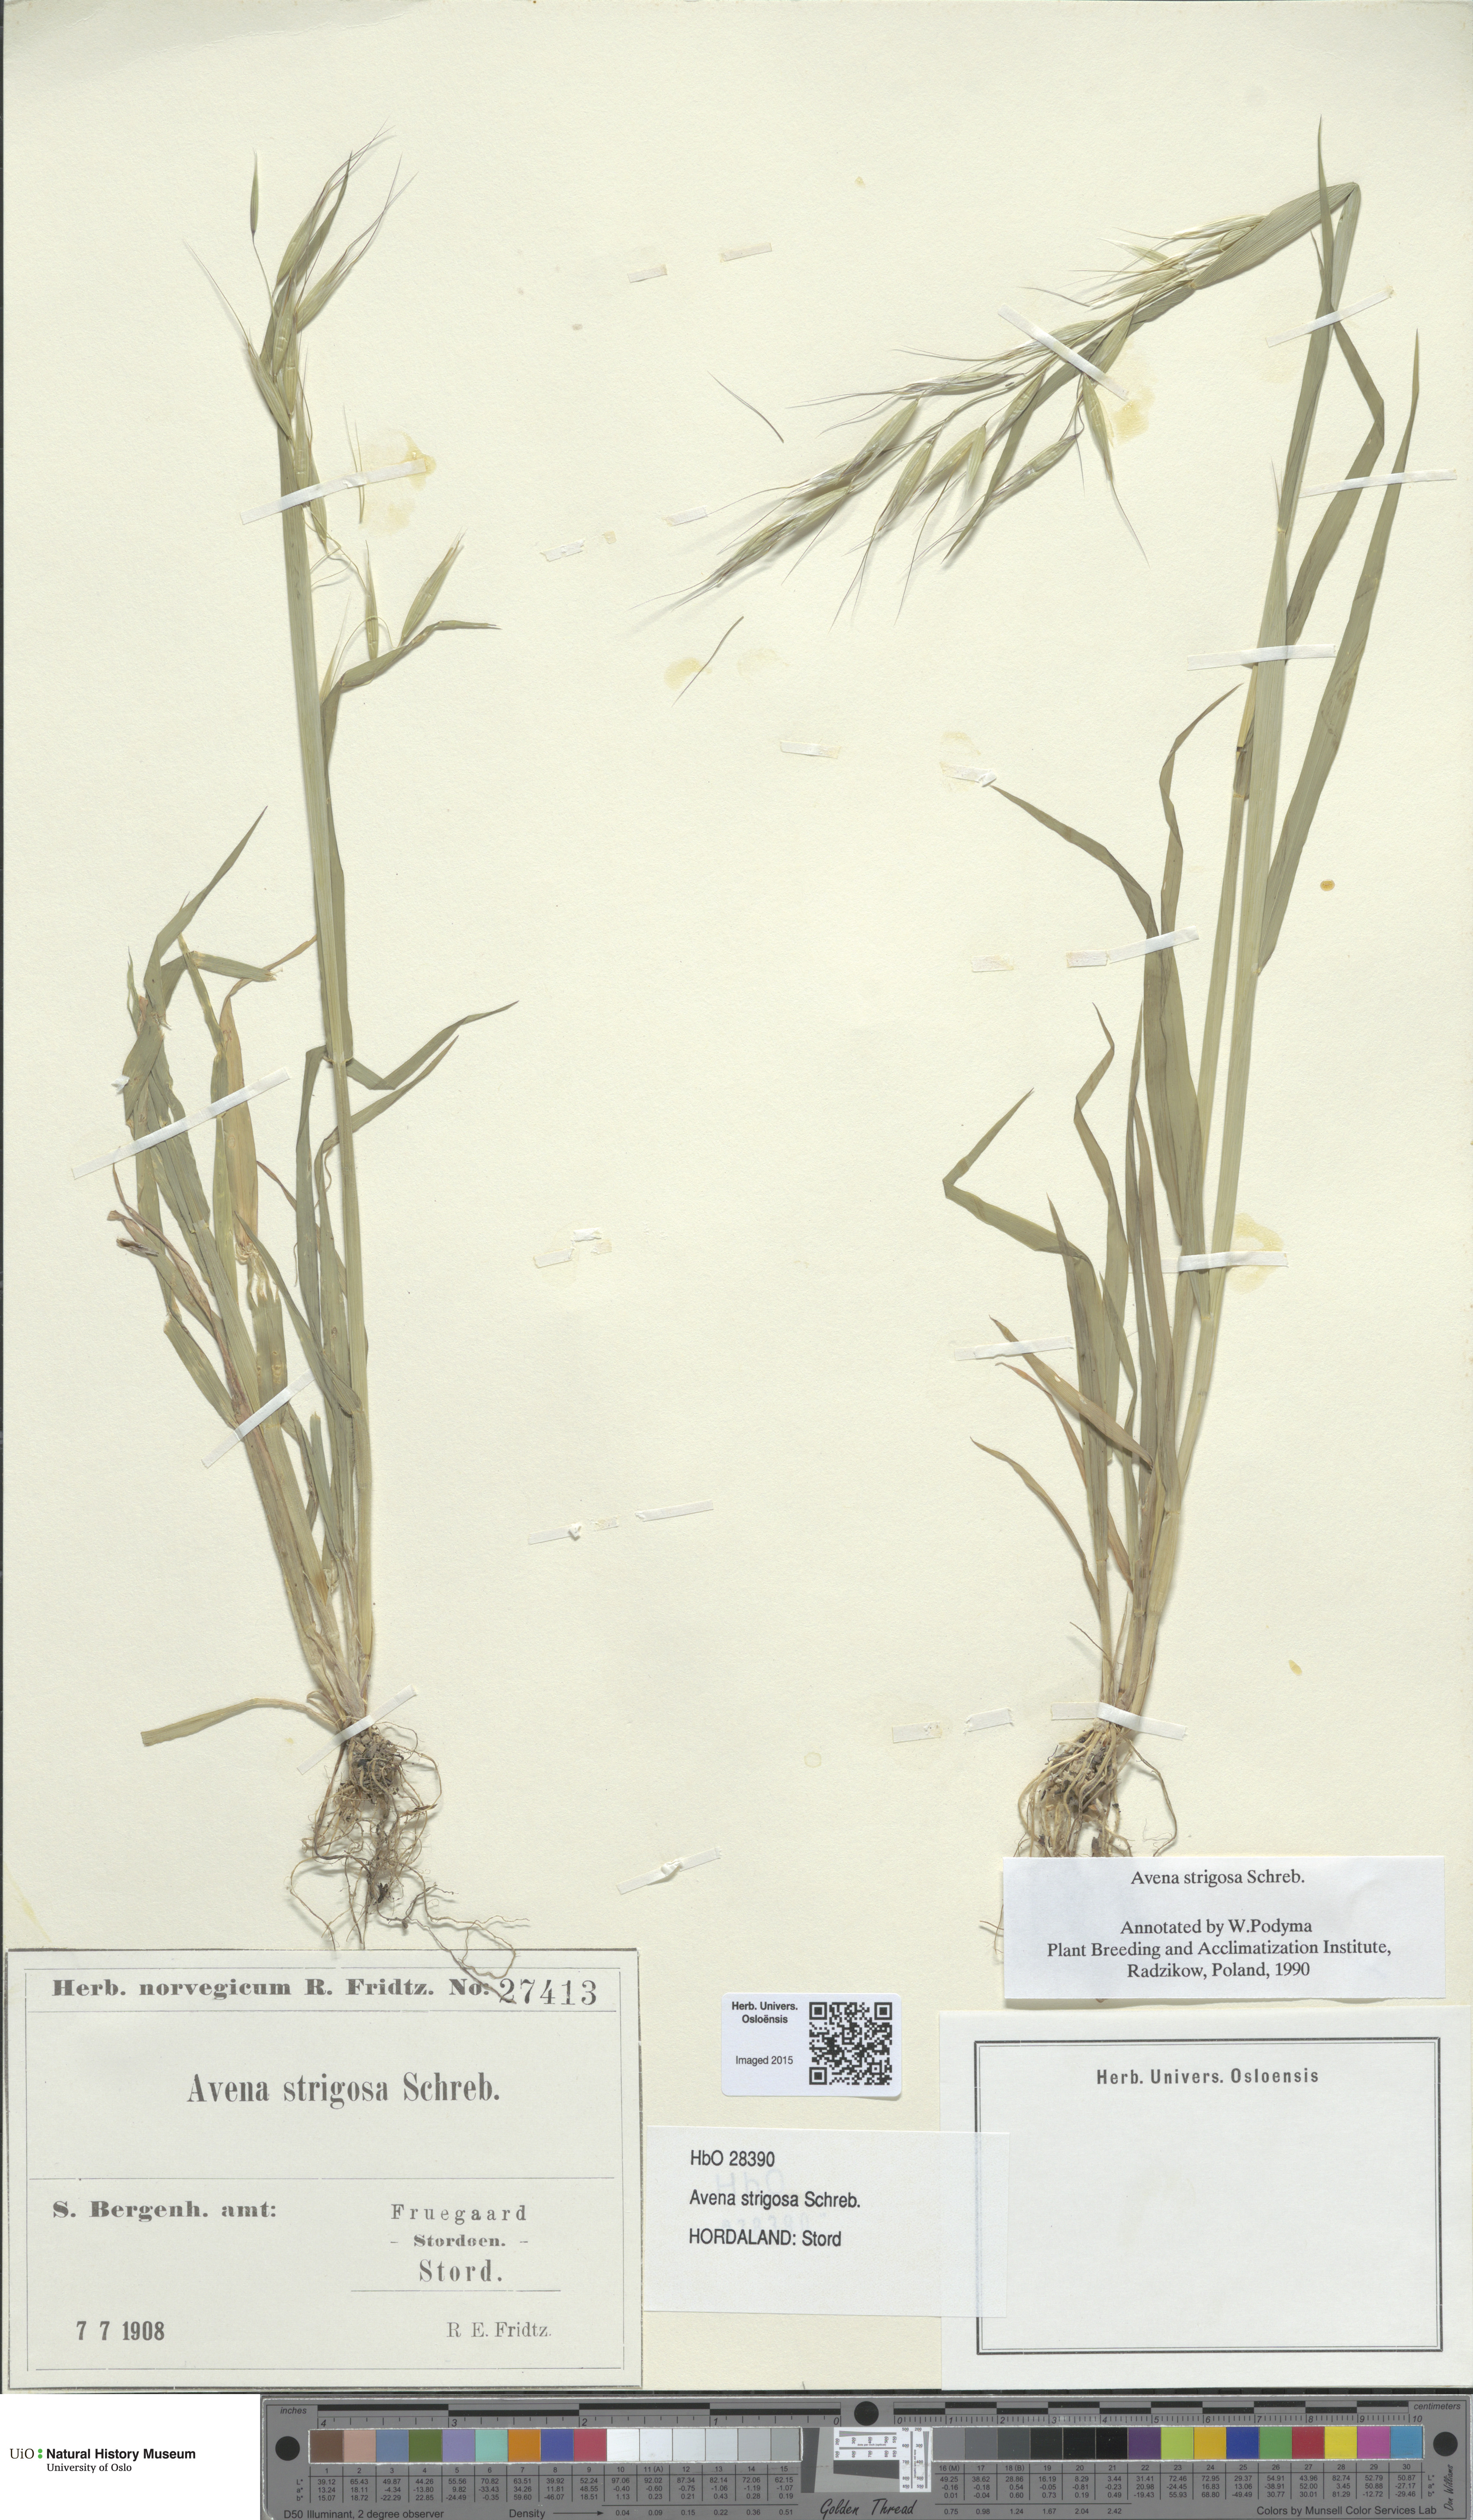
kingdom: Plantae
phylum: Tracheophyta
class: Liliopsida
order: Poales
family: Poaceae
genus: Avena
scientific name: Avena strigosa
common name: Bristle oat
